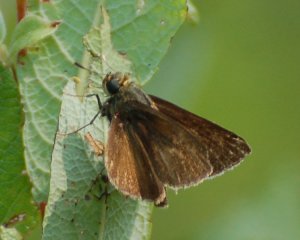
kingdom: Animalia
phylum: Arthropoda
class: Insecta
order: Lepidoptera
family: Hesperiidae
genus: Euphyes
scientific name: Euphyes vestris
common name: Dun Skipper
